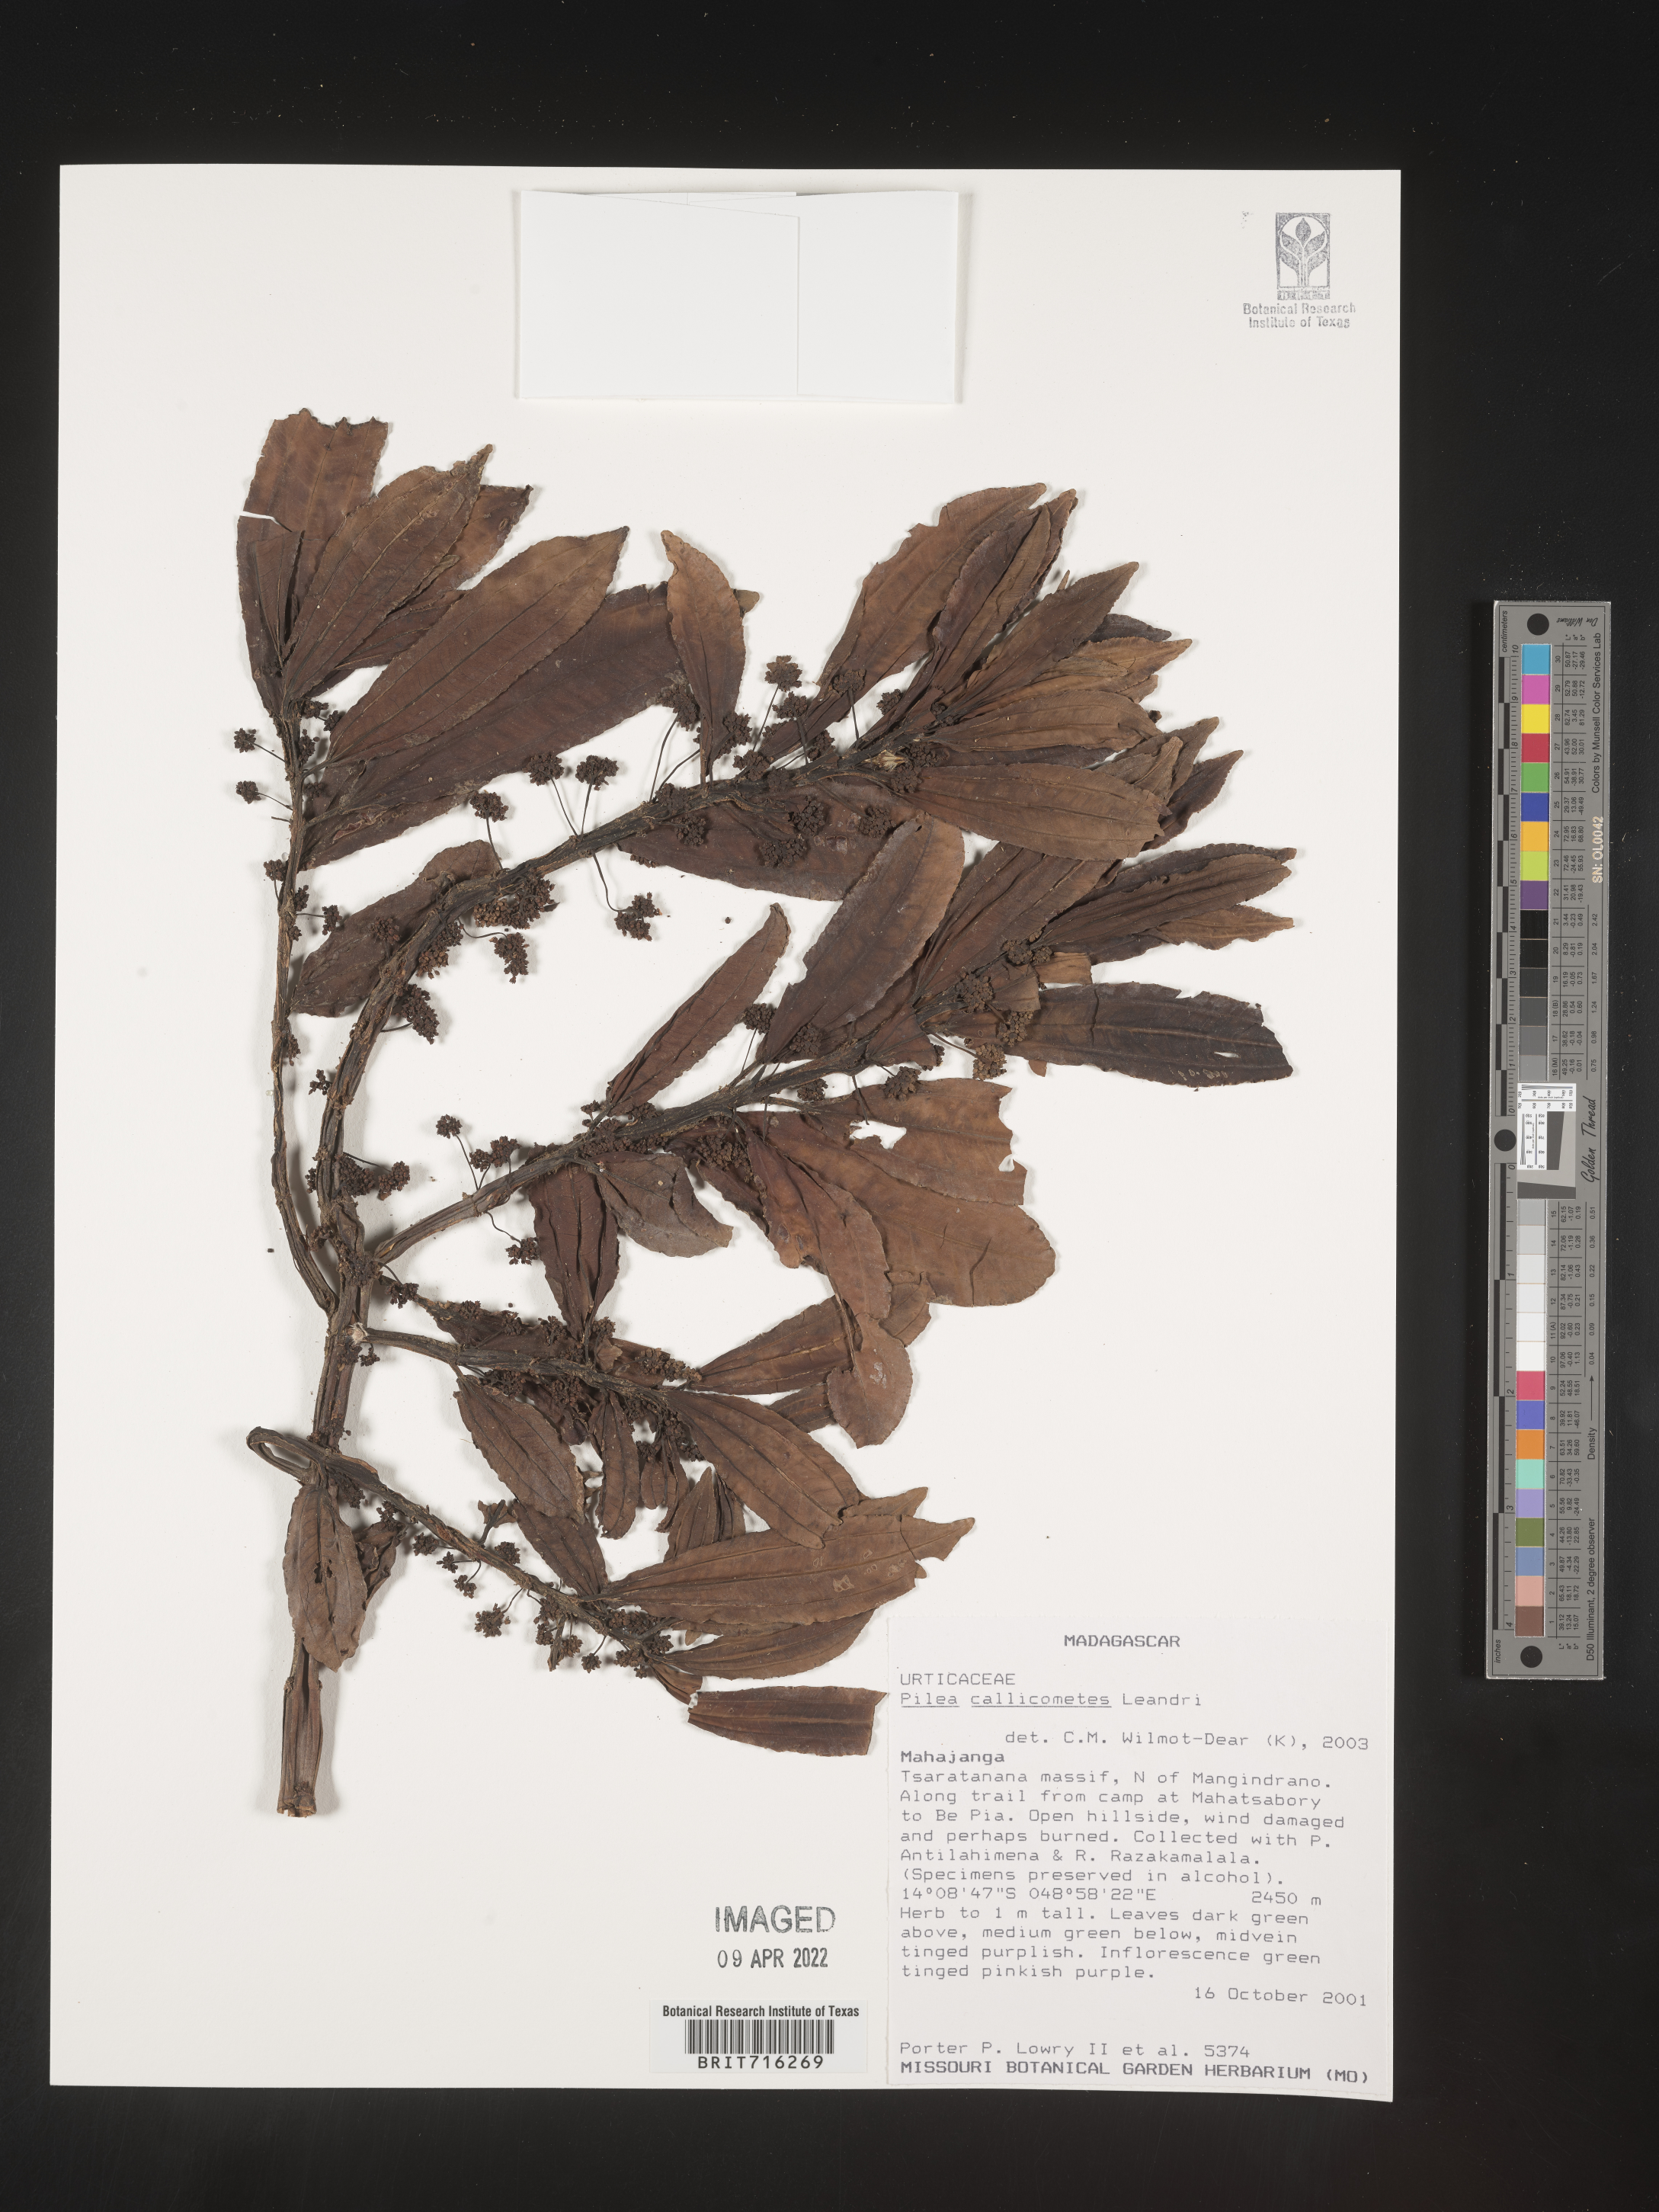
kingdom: Plantae
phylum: Tracheophyta
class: Magnoliopsida
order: Rosales
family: Urticaceae
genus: Pilea
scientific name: Pilea
